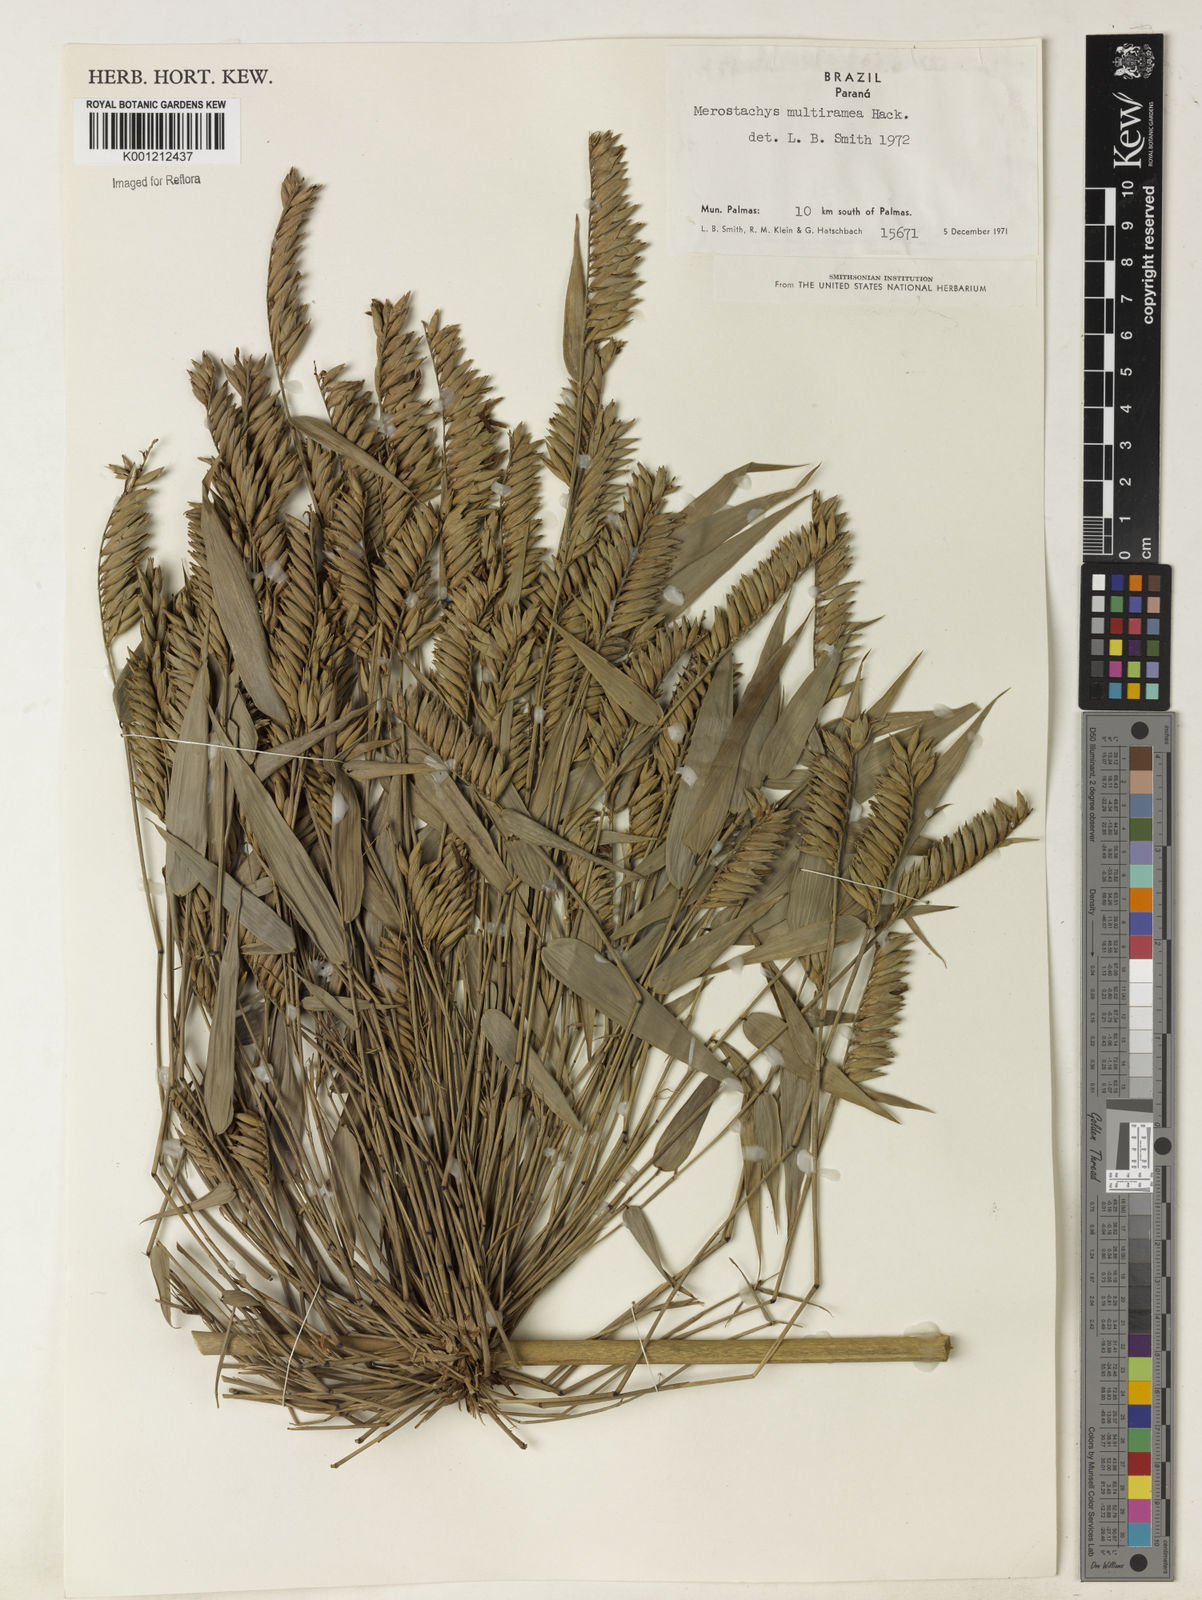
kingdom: Plantae
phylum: Tracheophyta
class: Liliopsida
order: Poales
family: Poaceae
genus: Merostachys
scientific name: Merostachys multiramea
